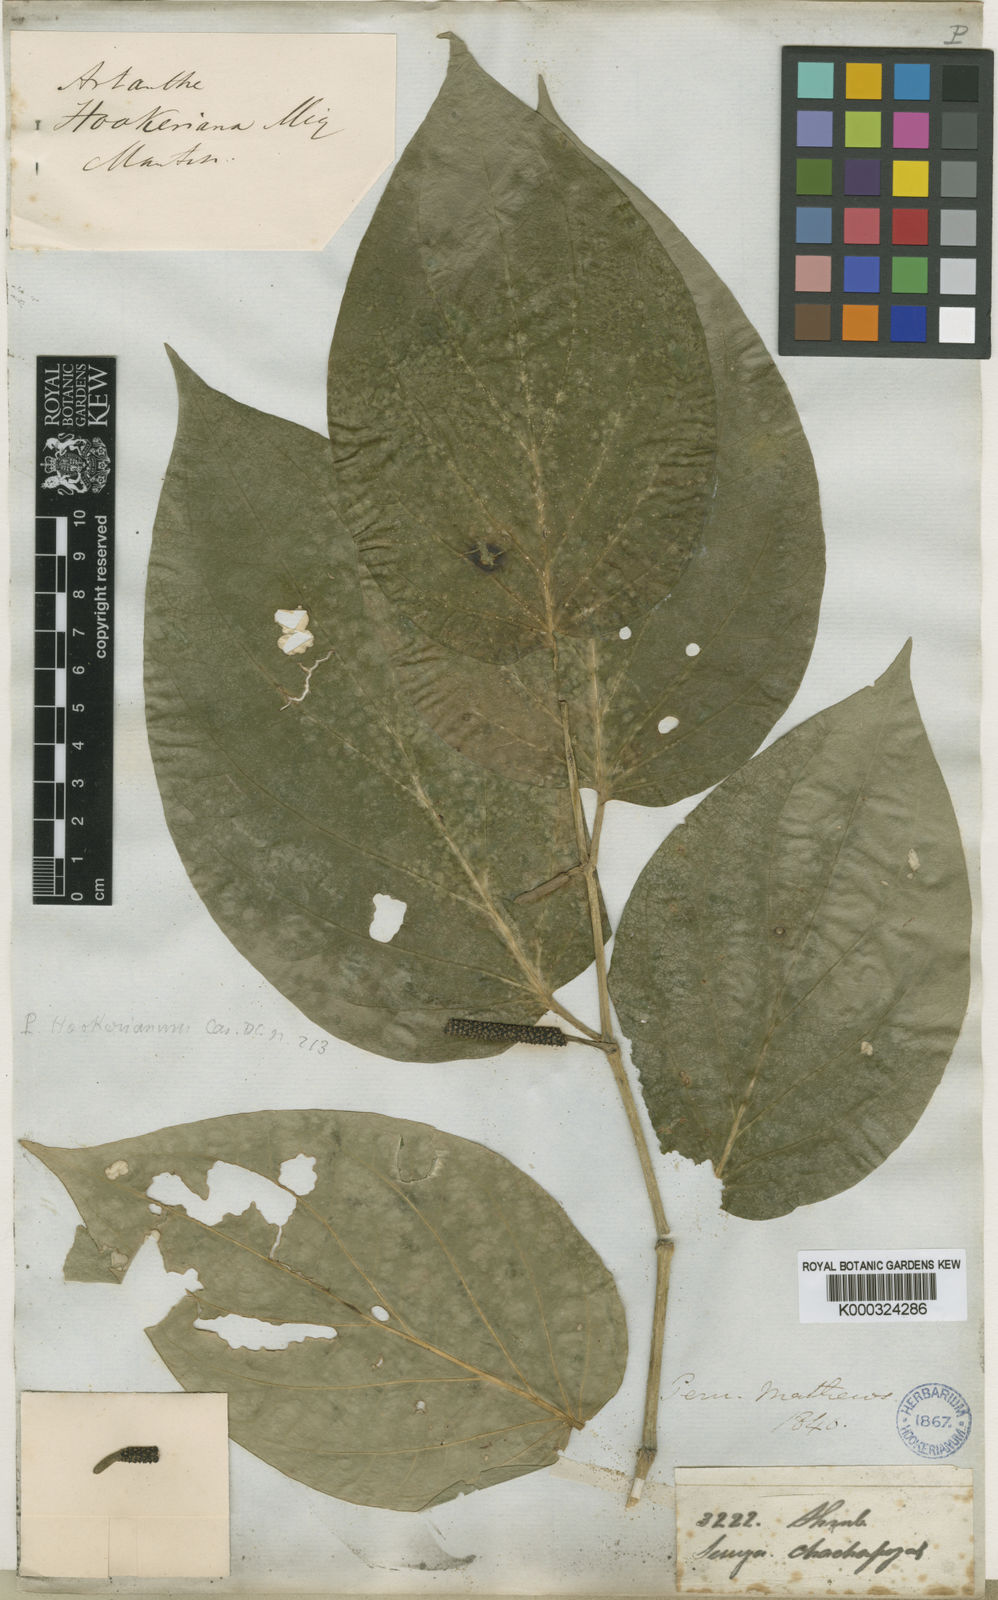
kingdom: Plantae
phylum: Tracheophyta
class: Magnoliopsida
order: Piperales
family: Piperaceae
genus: Piper
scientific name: Piper hookerianum
